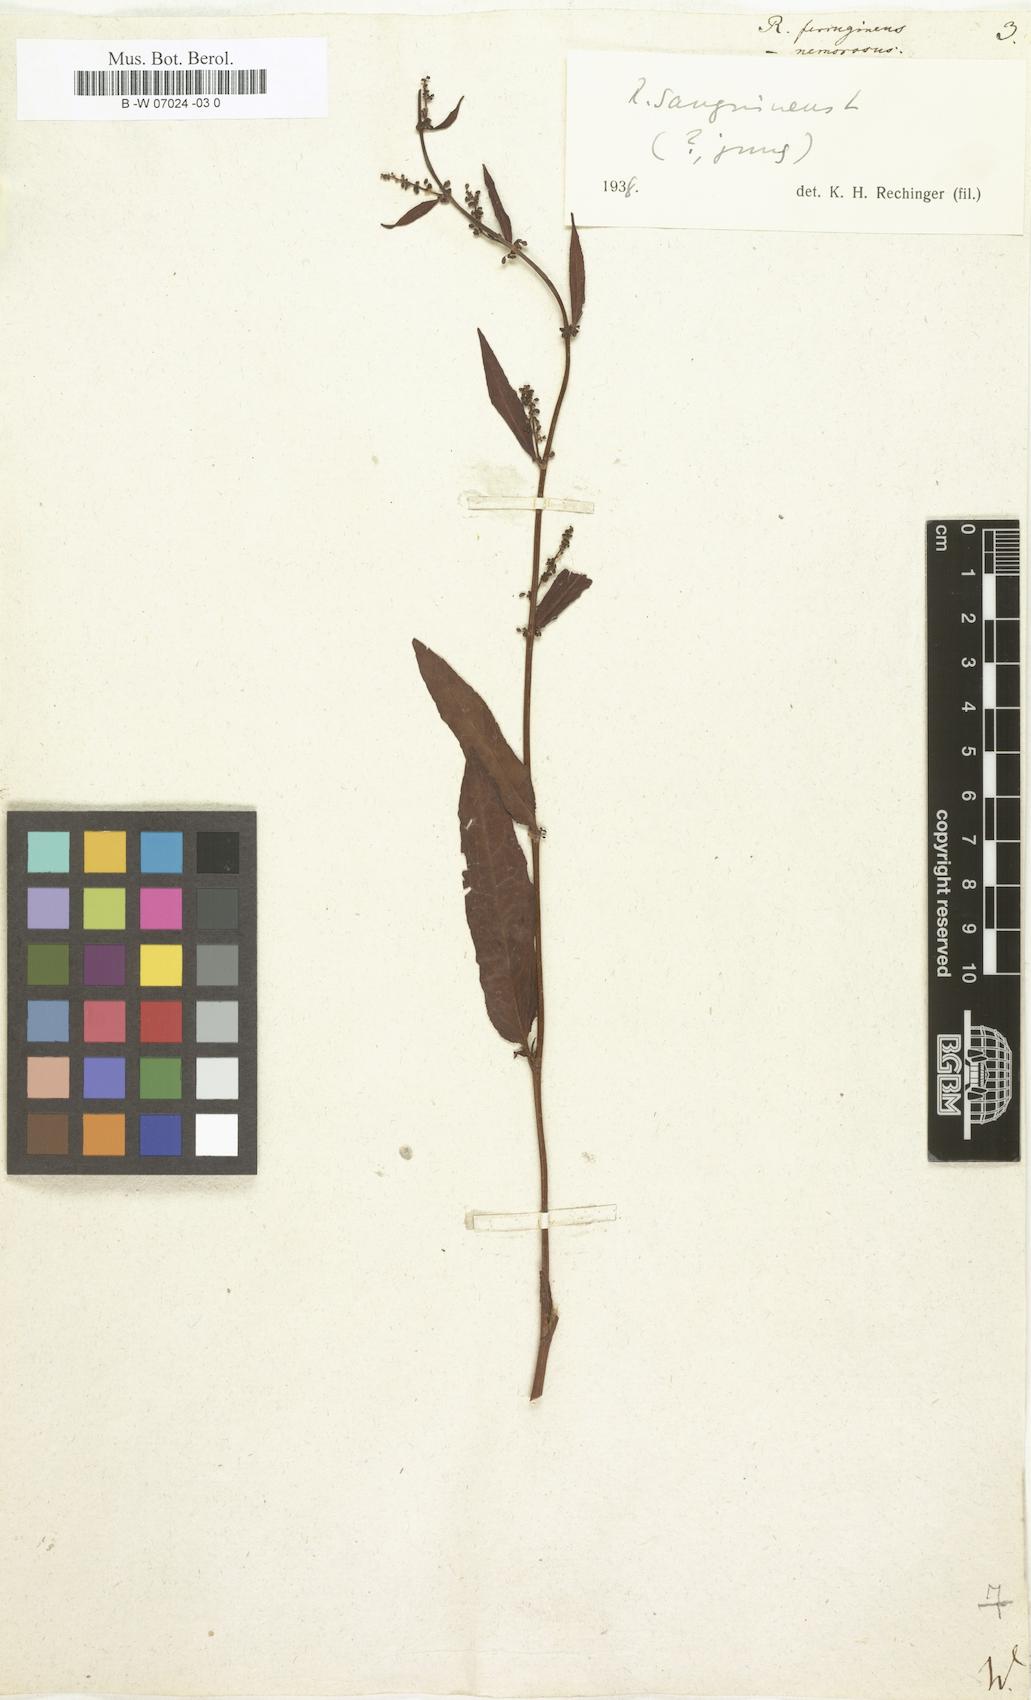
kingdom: Plantae
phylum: Tracheophyta
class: Magnoliopsida
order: Caryophyllales
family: Polygonaceae
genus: Rumex
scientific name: Rumex conglomeratus
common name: Clustered dock
